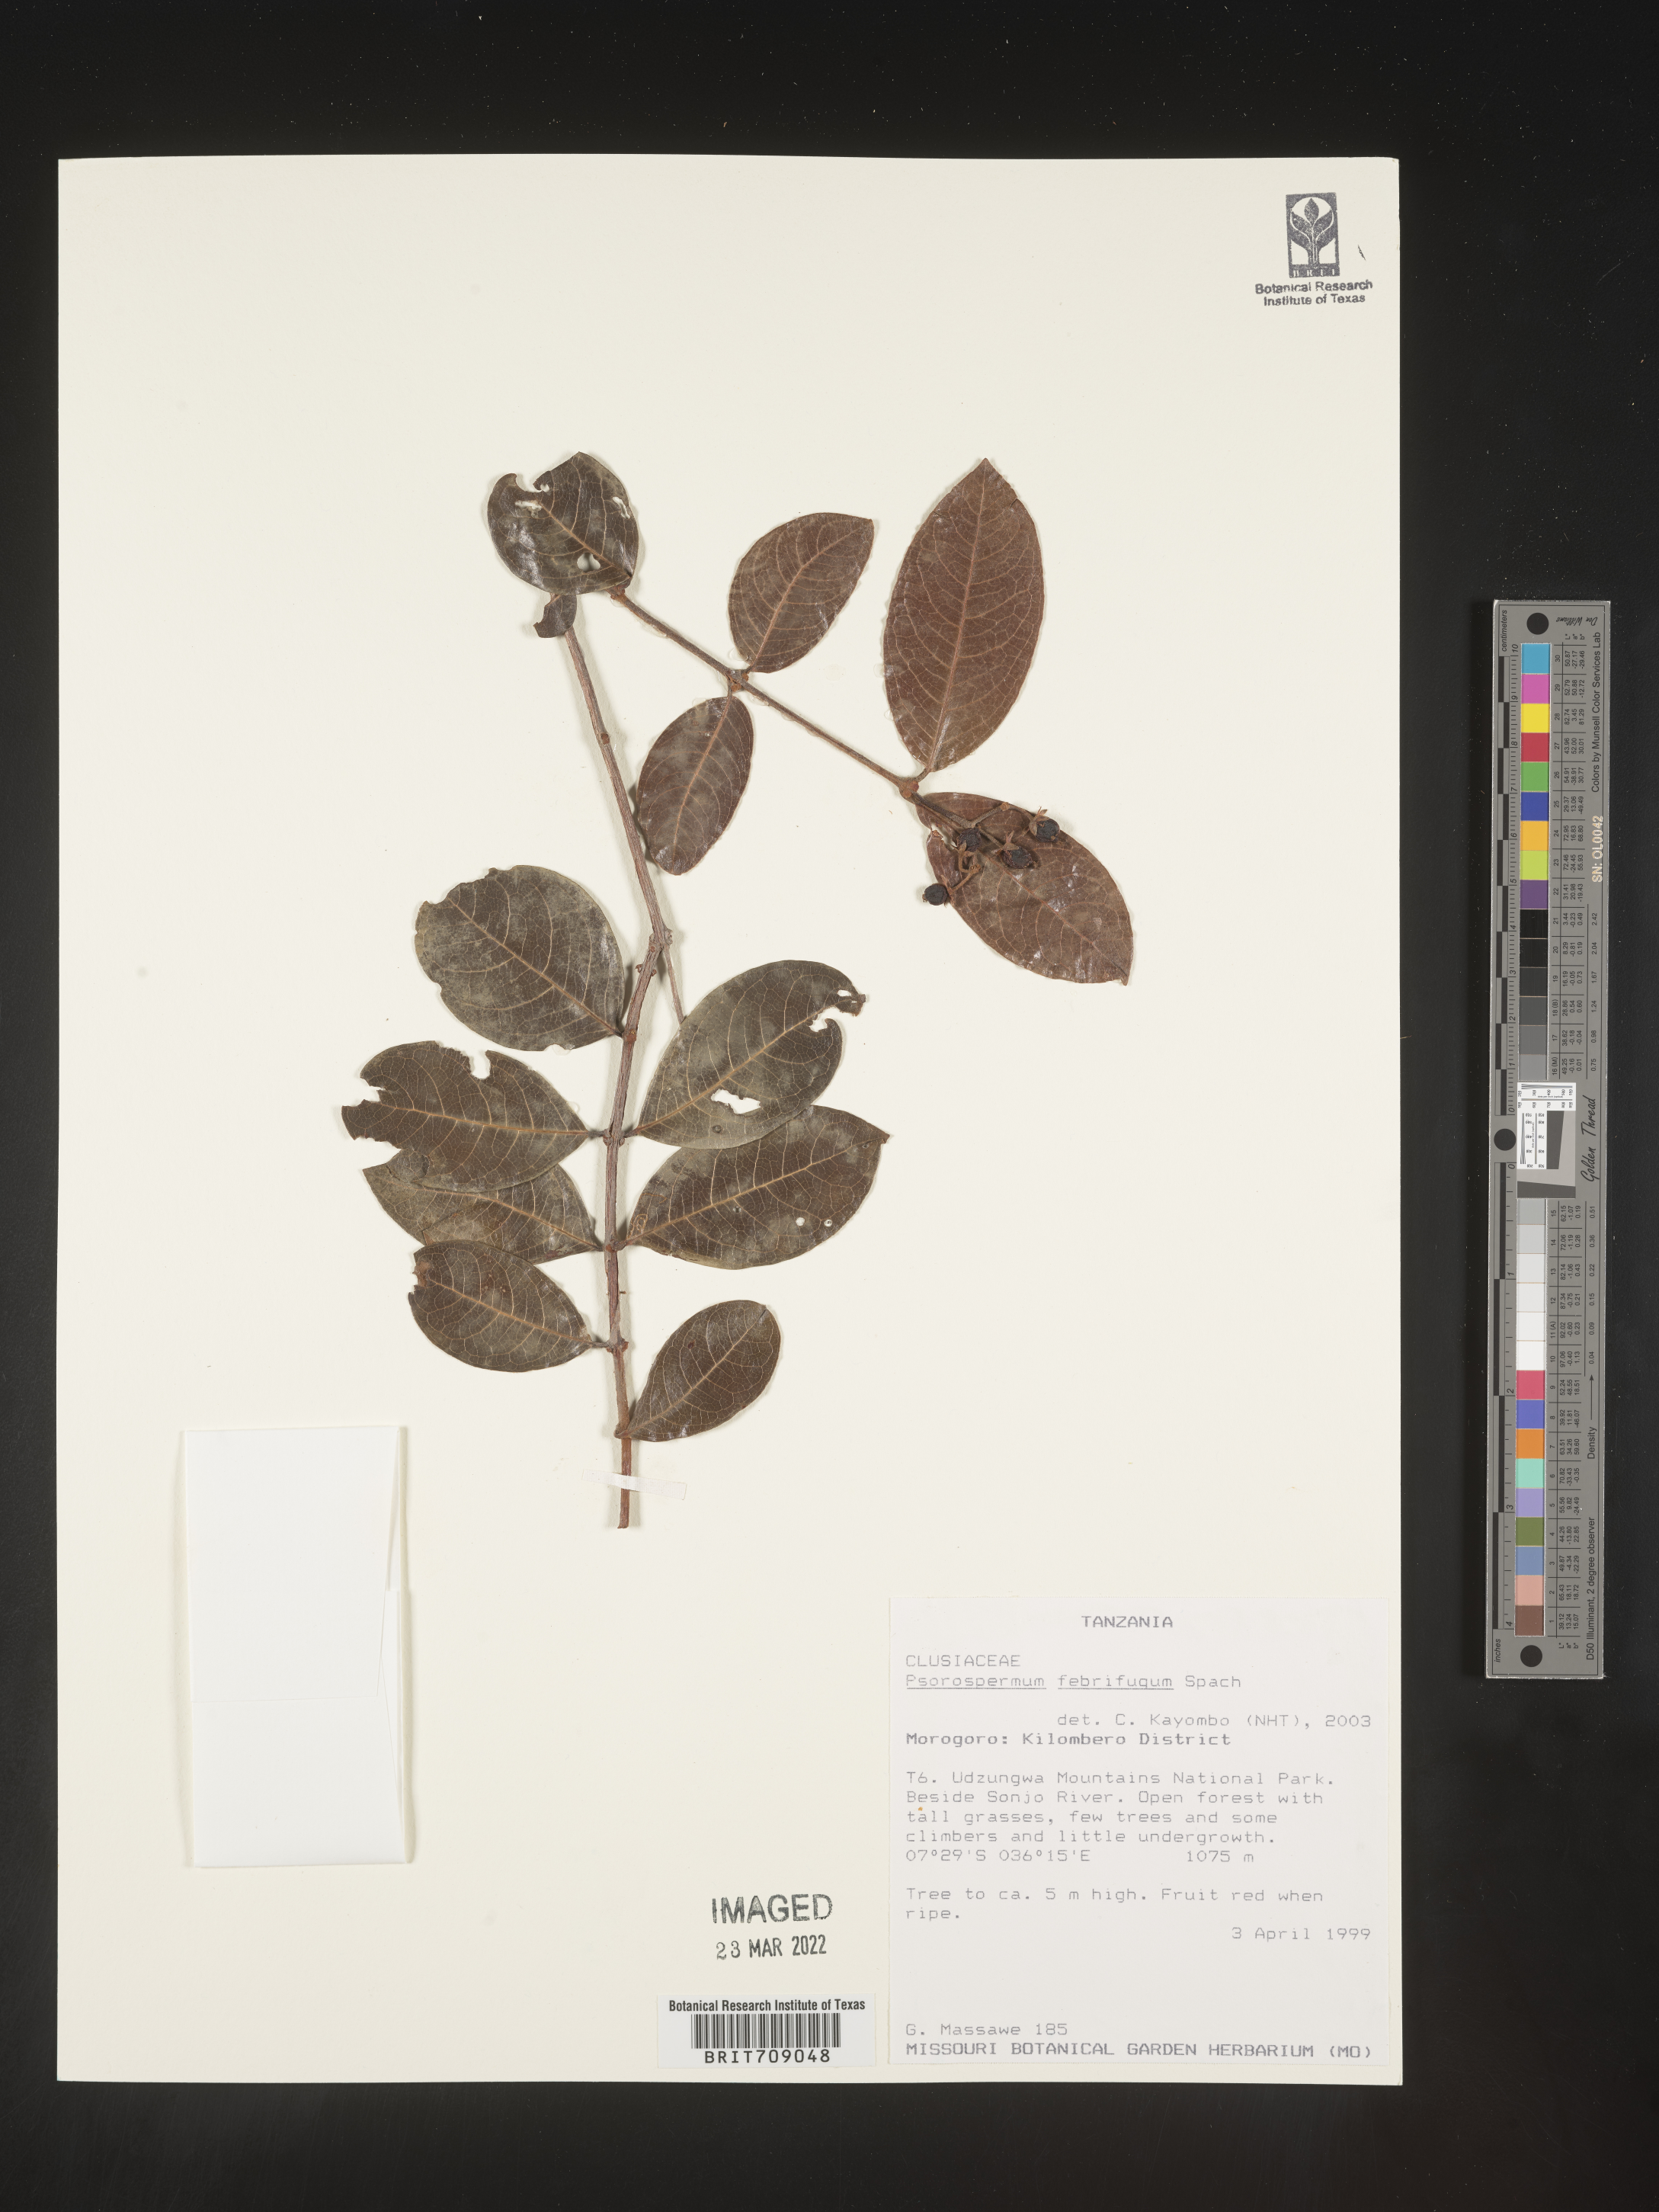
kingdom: Plantae
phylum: Tracheophyta
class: Magnoliopsida
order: Malpighiales
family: Hypericaceae
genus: Psorospermum
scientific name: Psorospermum
